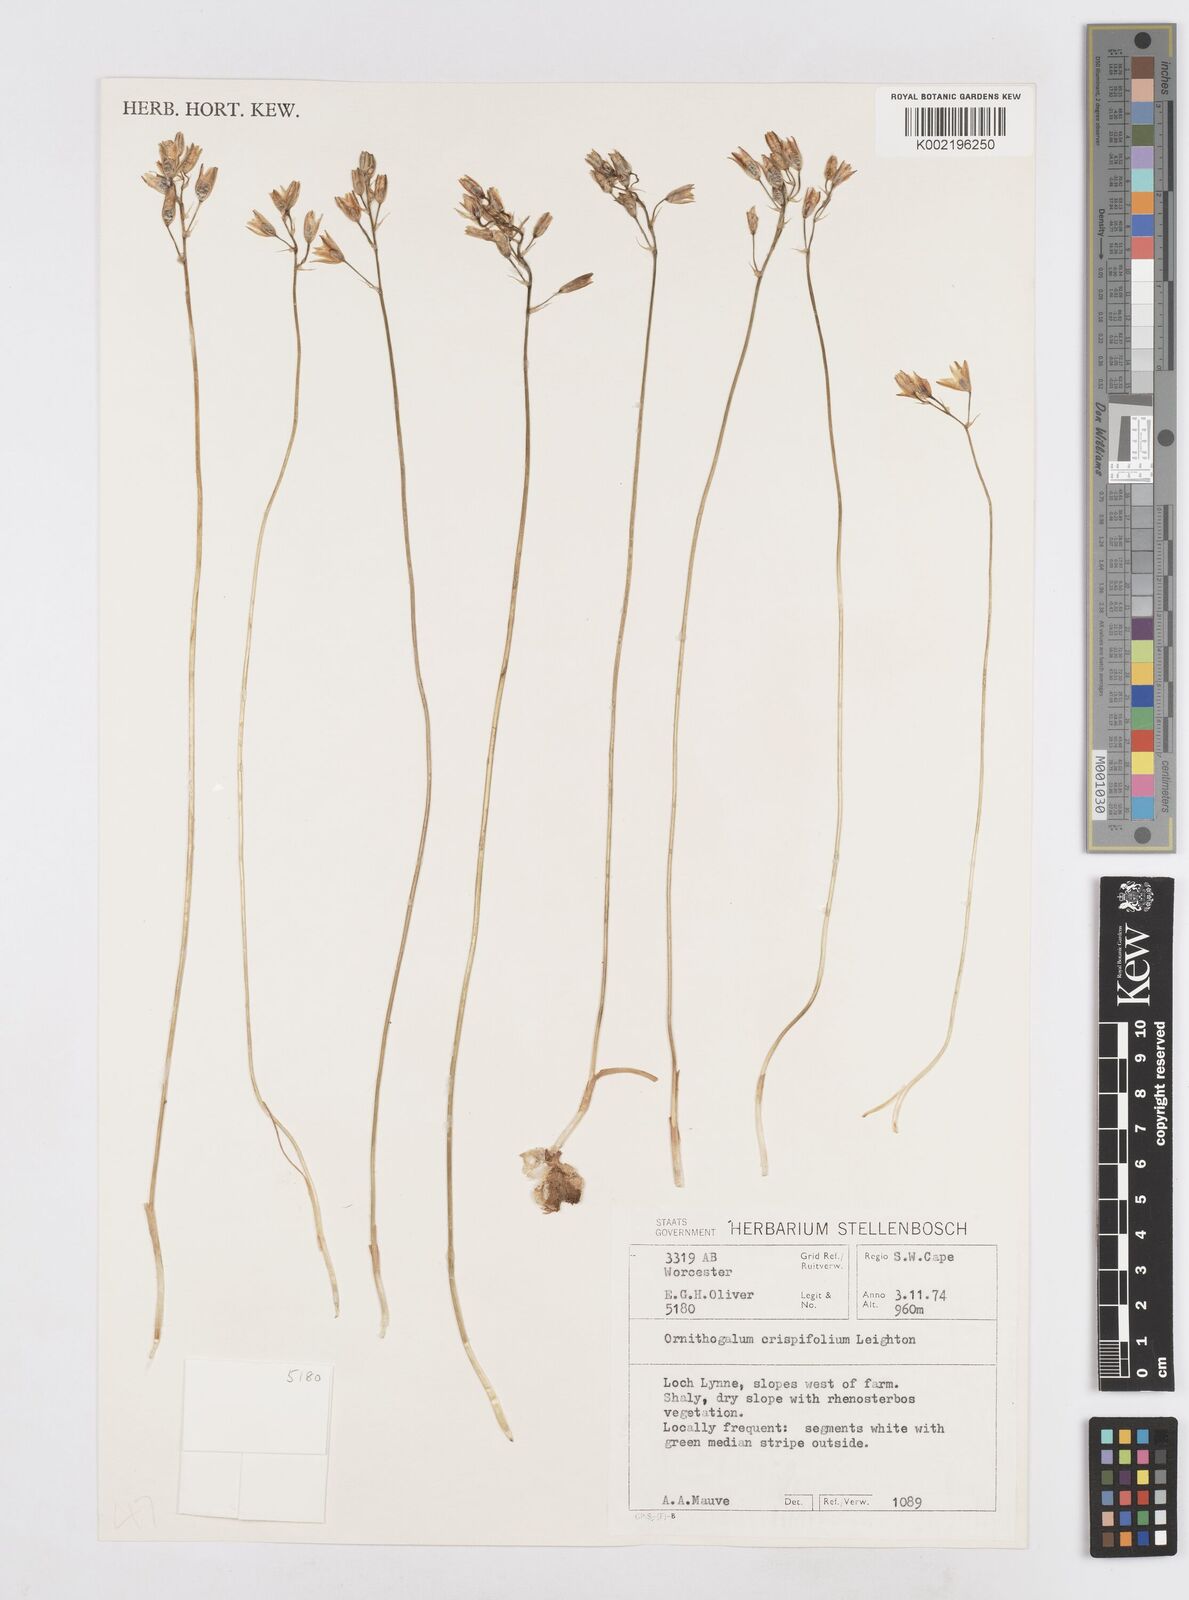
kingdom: Plantae
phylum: Tracheophyta
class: Liliopsida
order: Asparagales
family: Asparagaceae
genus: Ornithogalum
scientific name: Ornithogalum graminifolium
